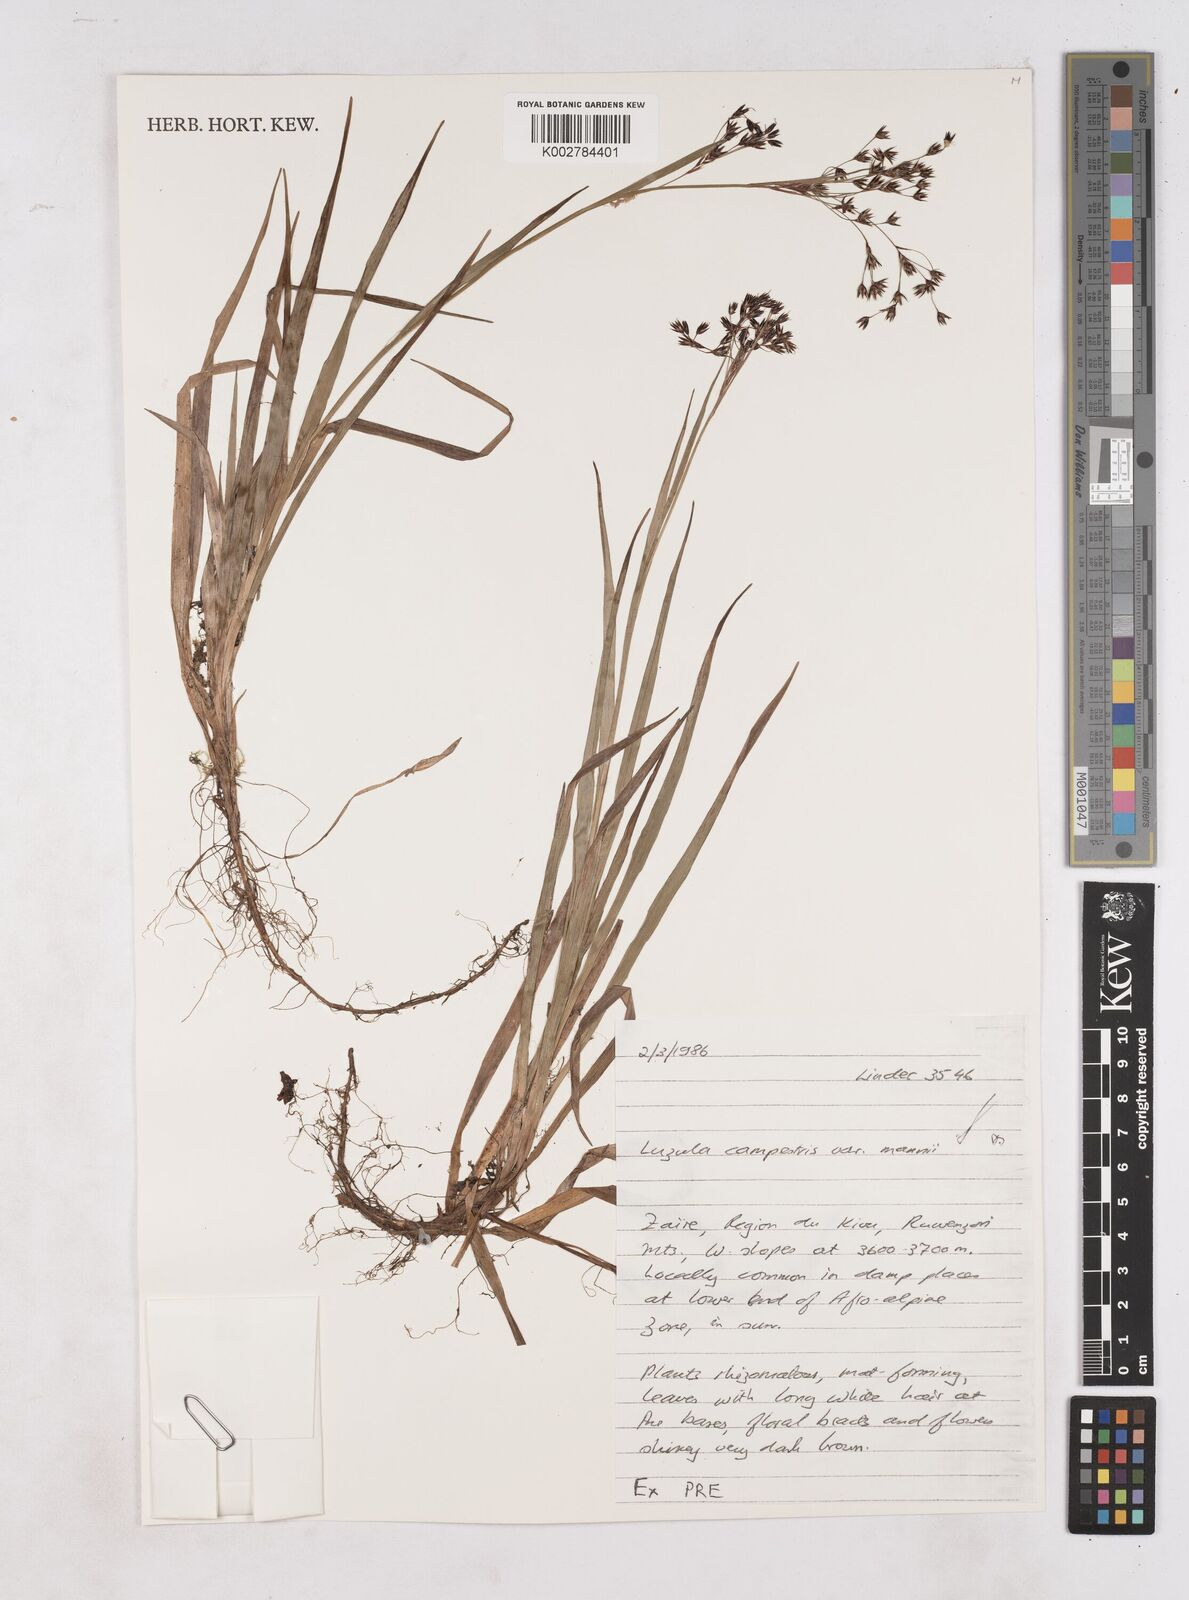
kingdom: Plantae
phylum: Tracheophyta
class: Liliopsida
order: Poales
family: Juncaceae
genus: Luzula
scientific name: Luzula johnstonii
